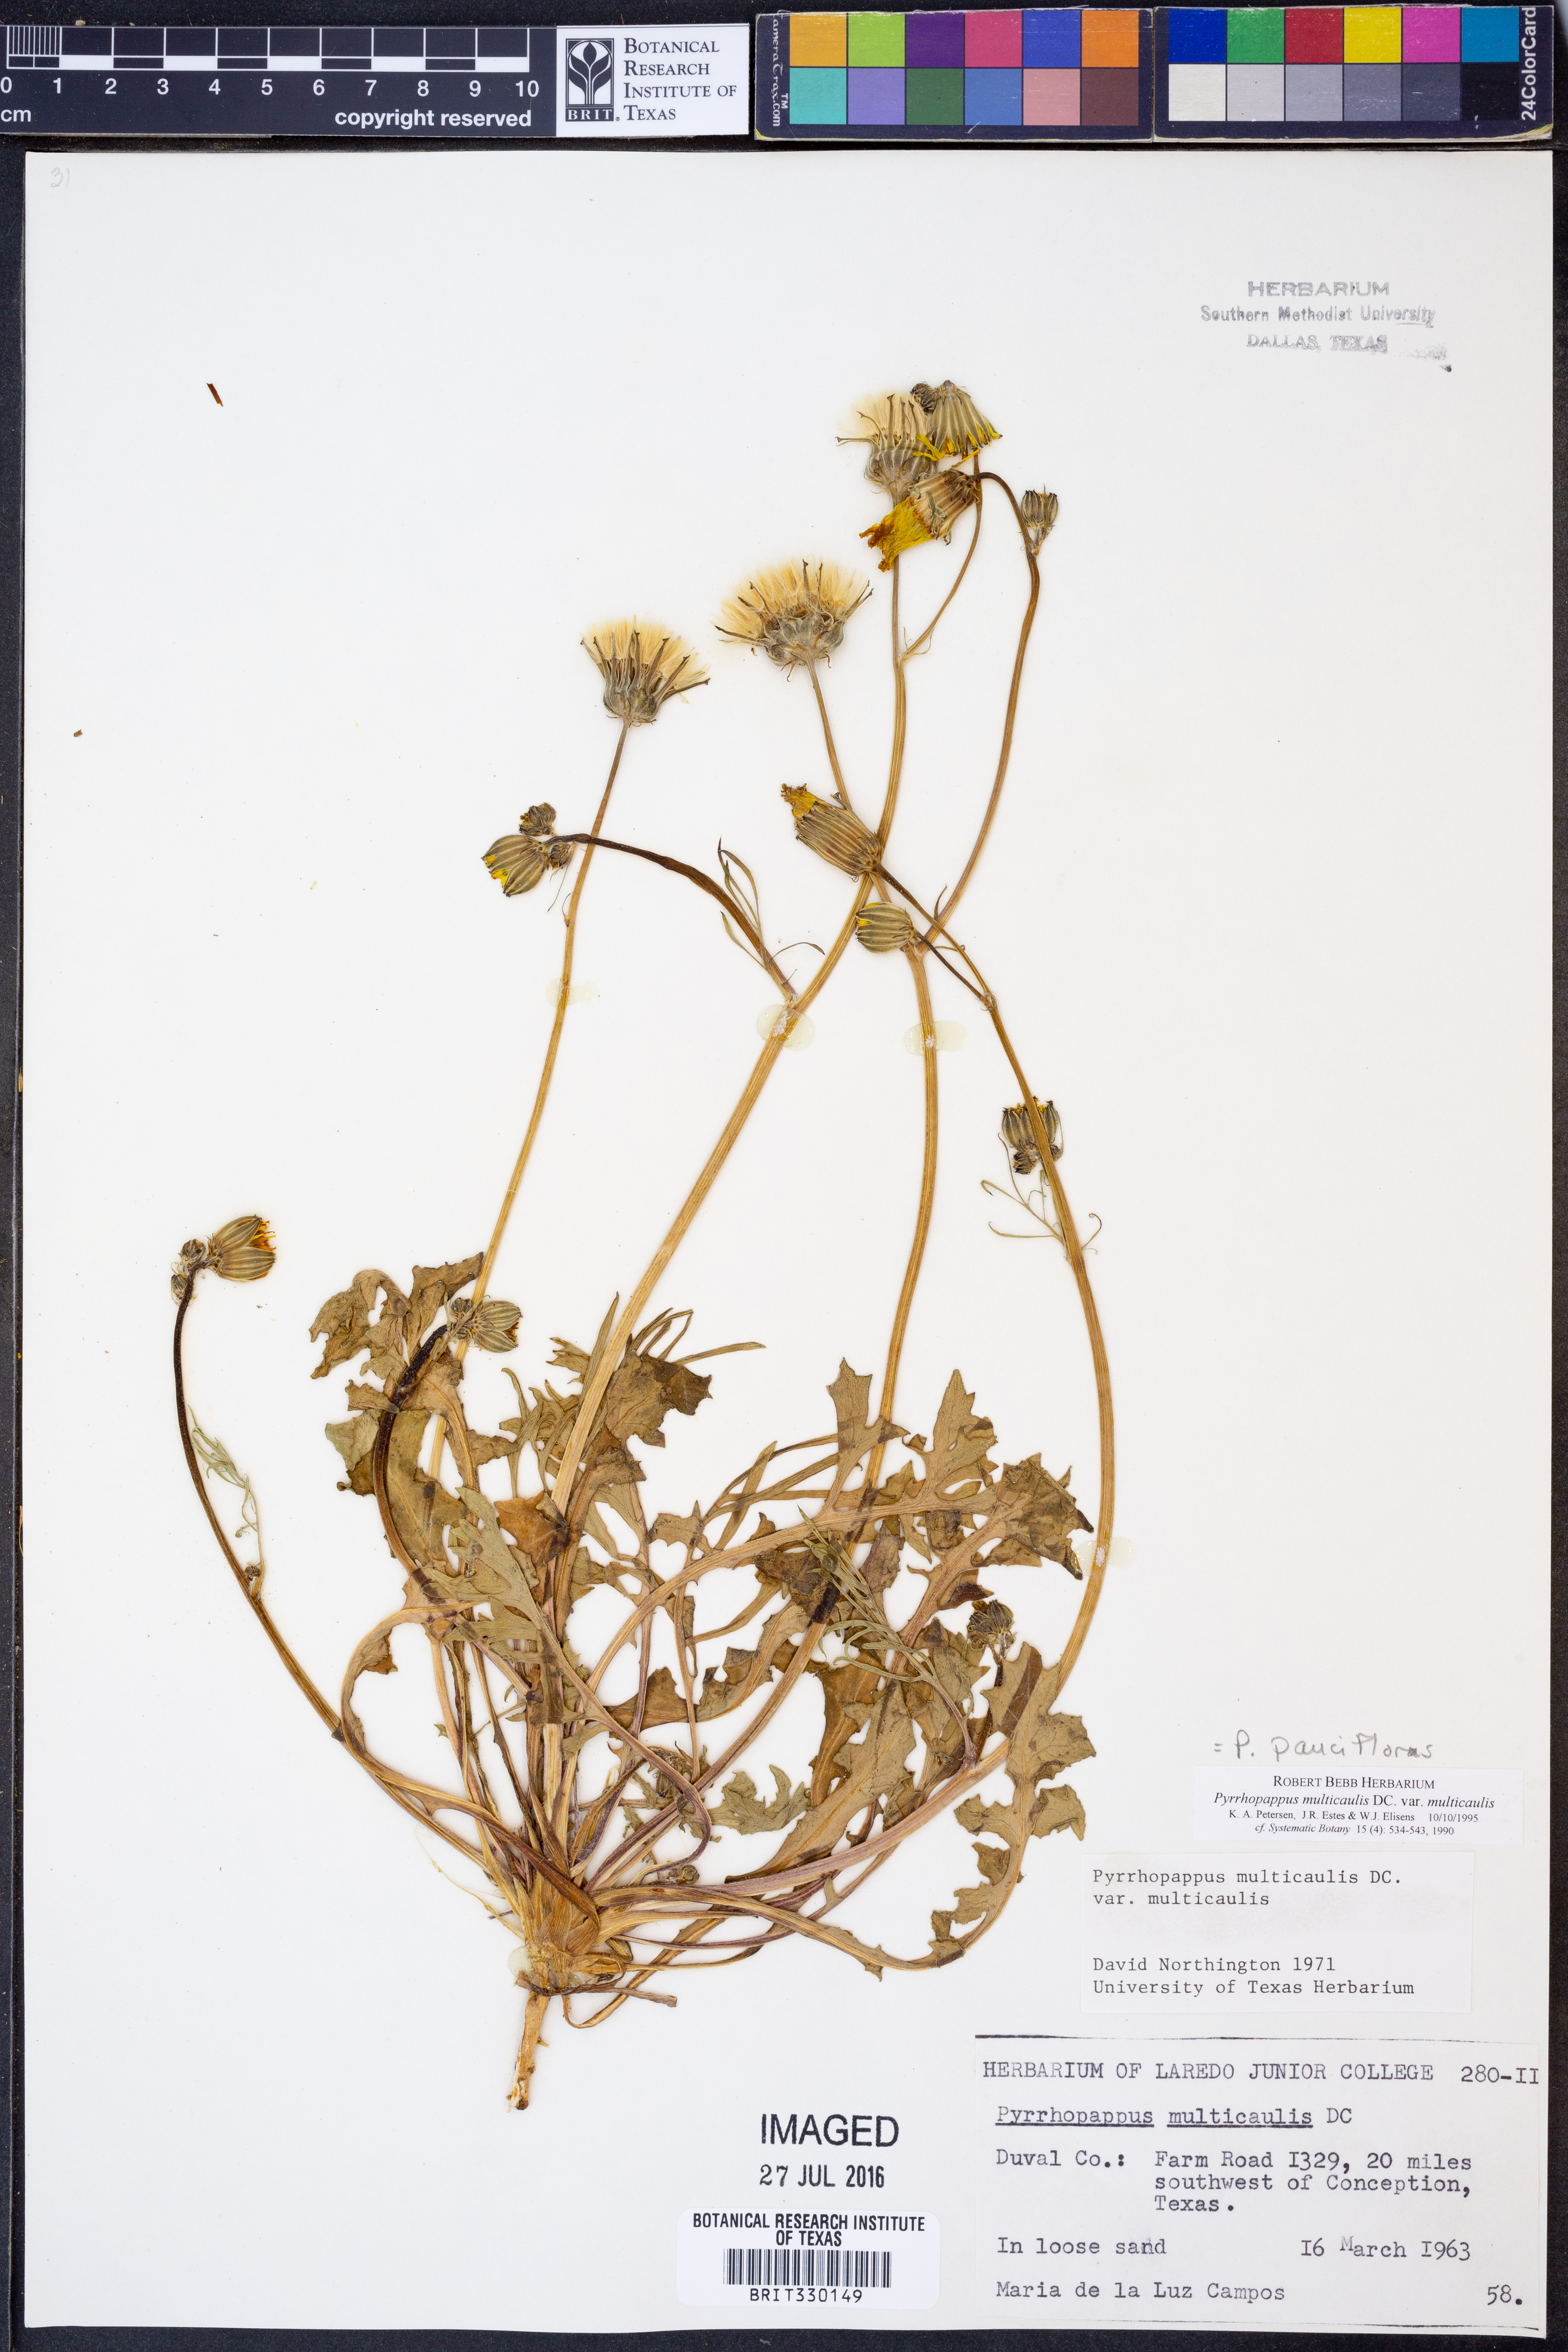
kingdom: Plantae
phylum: Tracheophyta
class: Magnoliopsida
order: Asterales
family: Asteraceae
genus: Pyrrhopappus
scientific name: Pyrrhopappus pauciflorus
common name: Texas false dandelion
